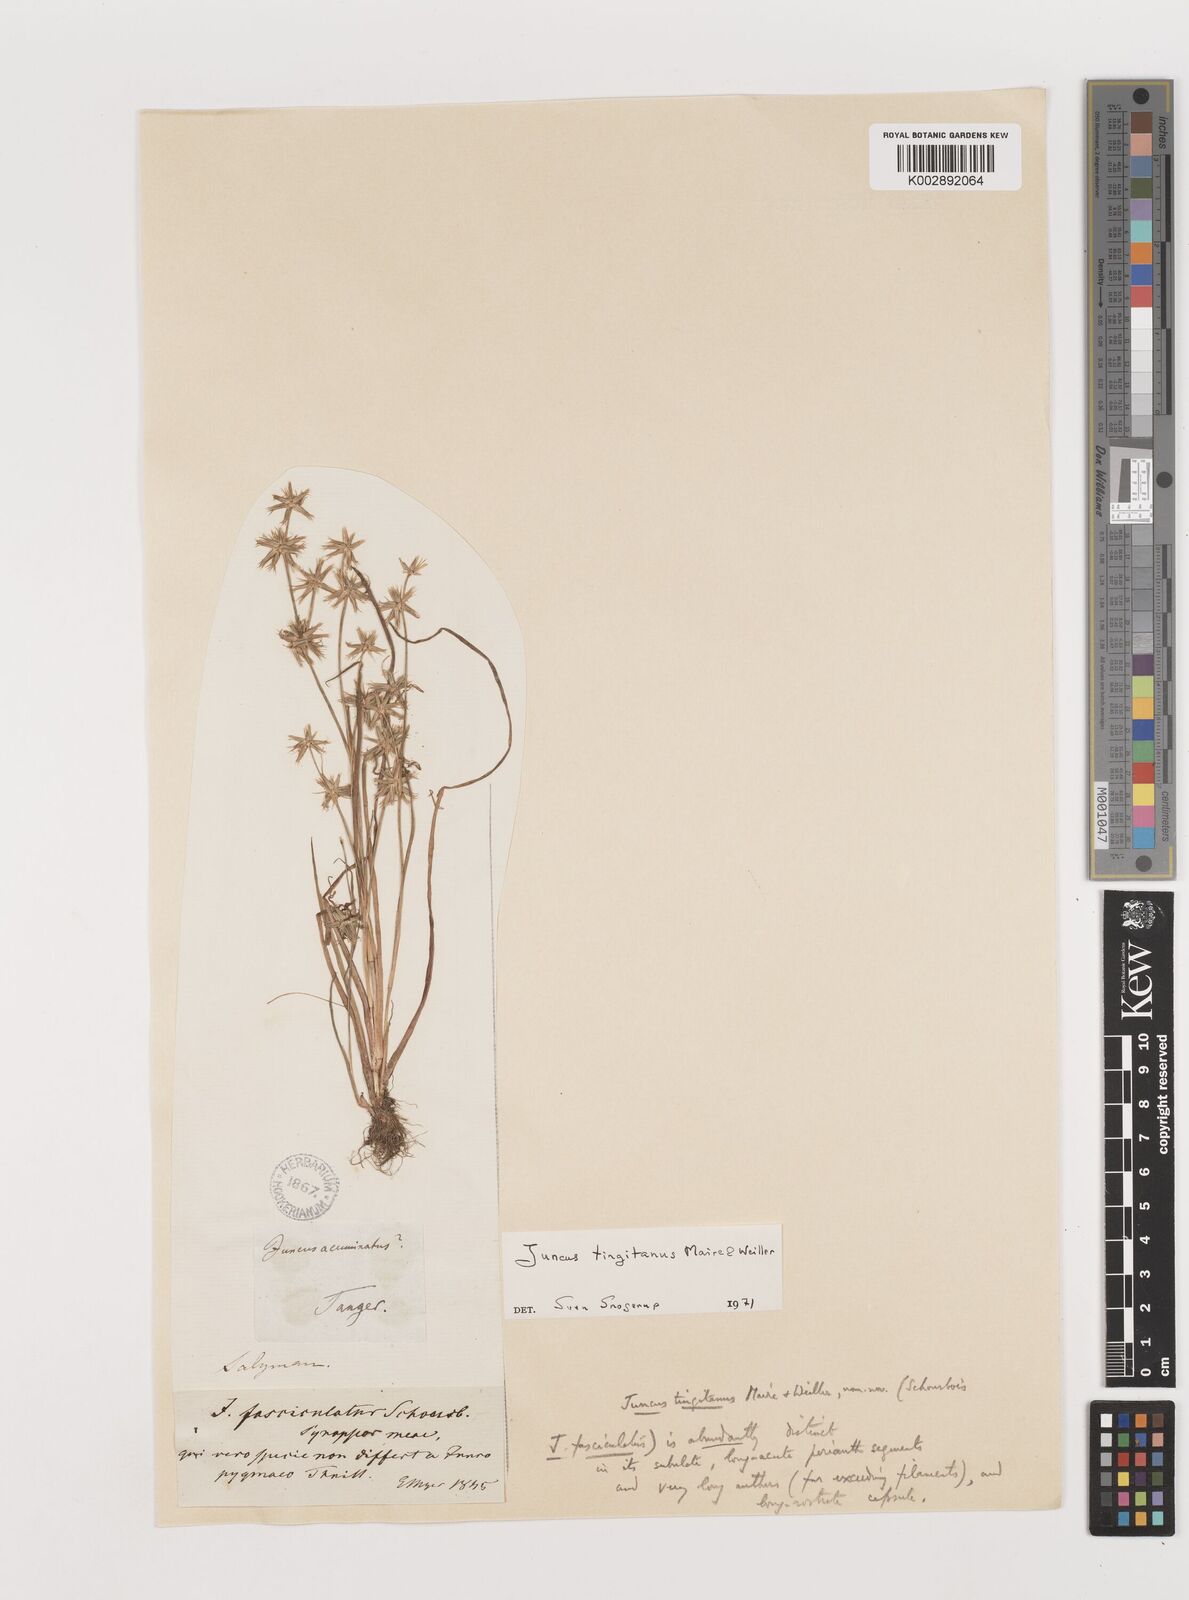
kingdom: Plantae
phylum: Tracheophyta
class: Liliopsida
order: Poales
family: Juncaceae
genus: Juncus
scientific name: Juncus tingitanus
